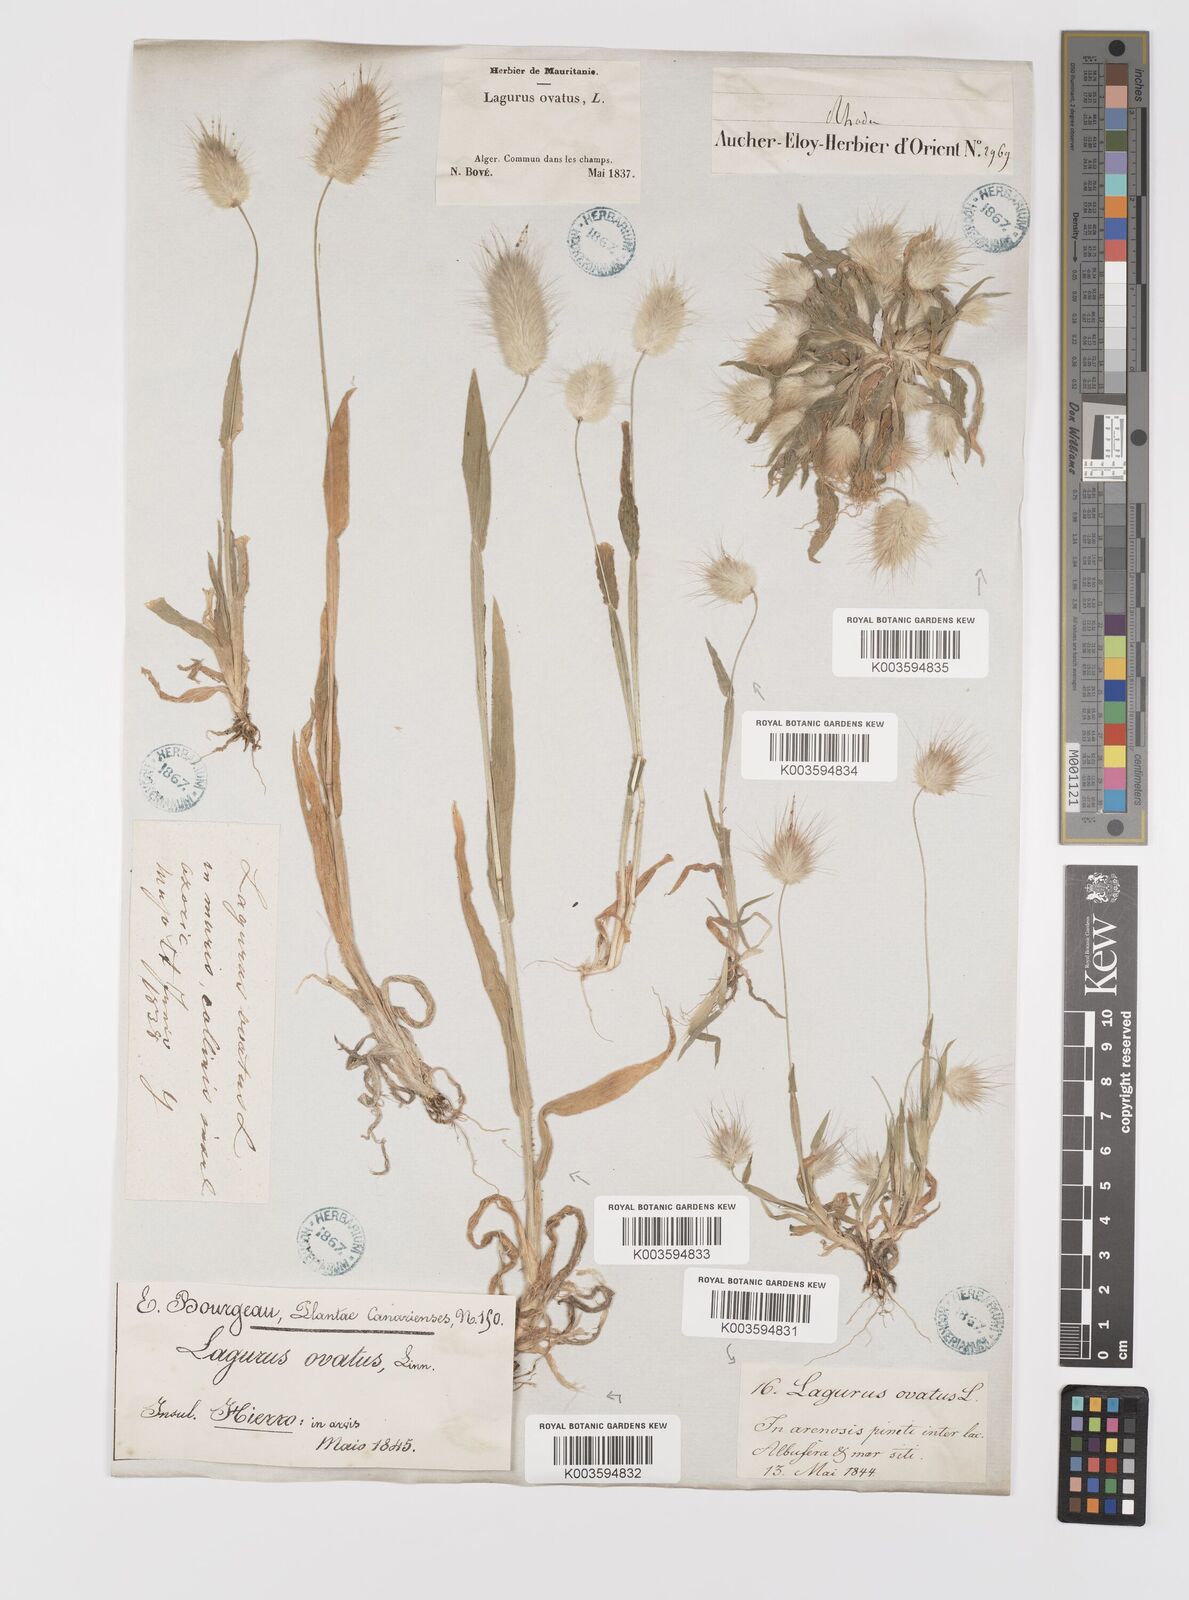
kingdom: Plantae
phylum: Tracheophyta
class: Liliopsida
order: Poales
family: Poaceae
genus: Lagurus
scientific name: Lagurus ovatus
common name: Hare's-tail
